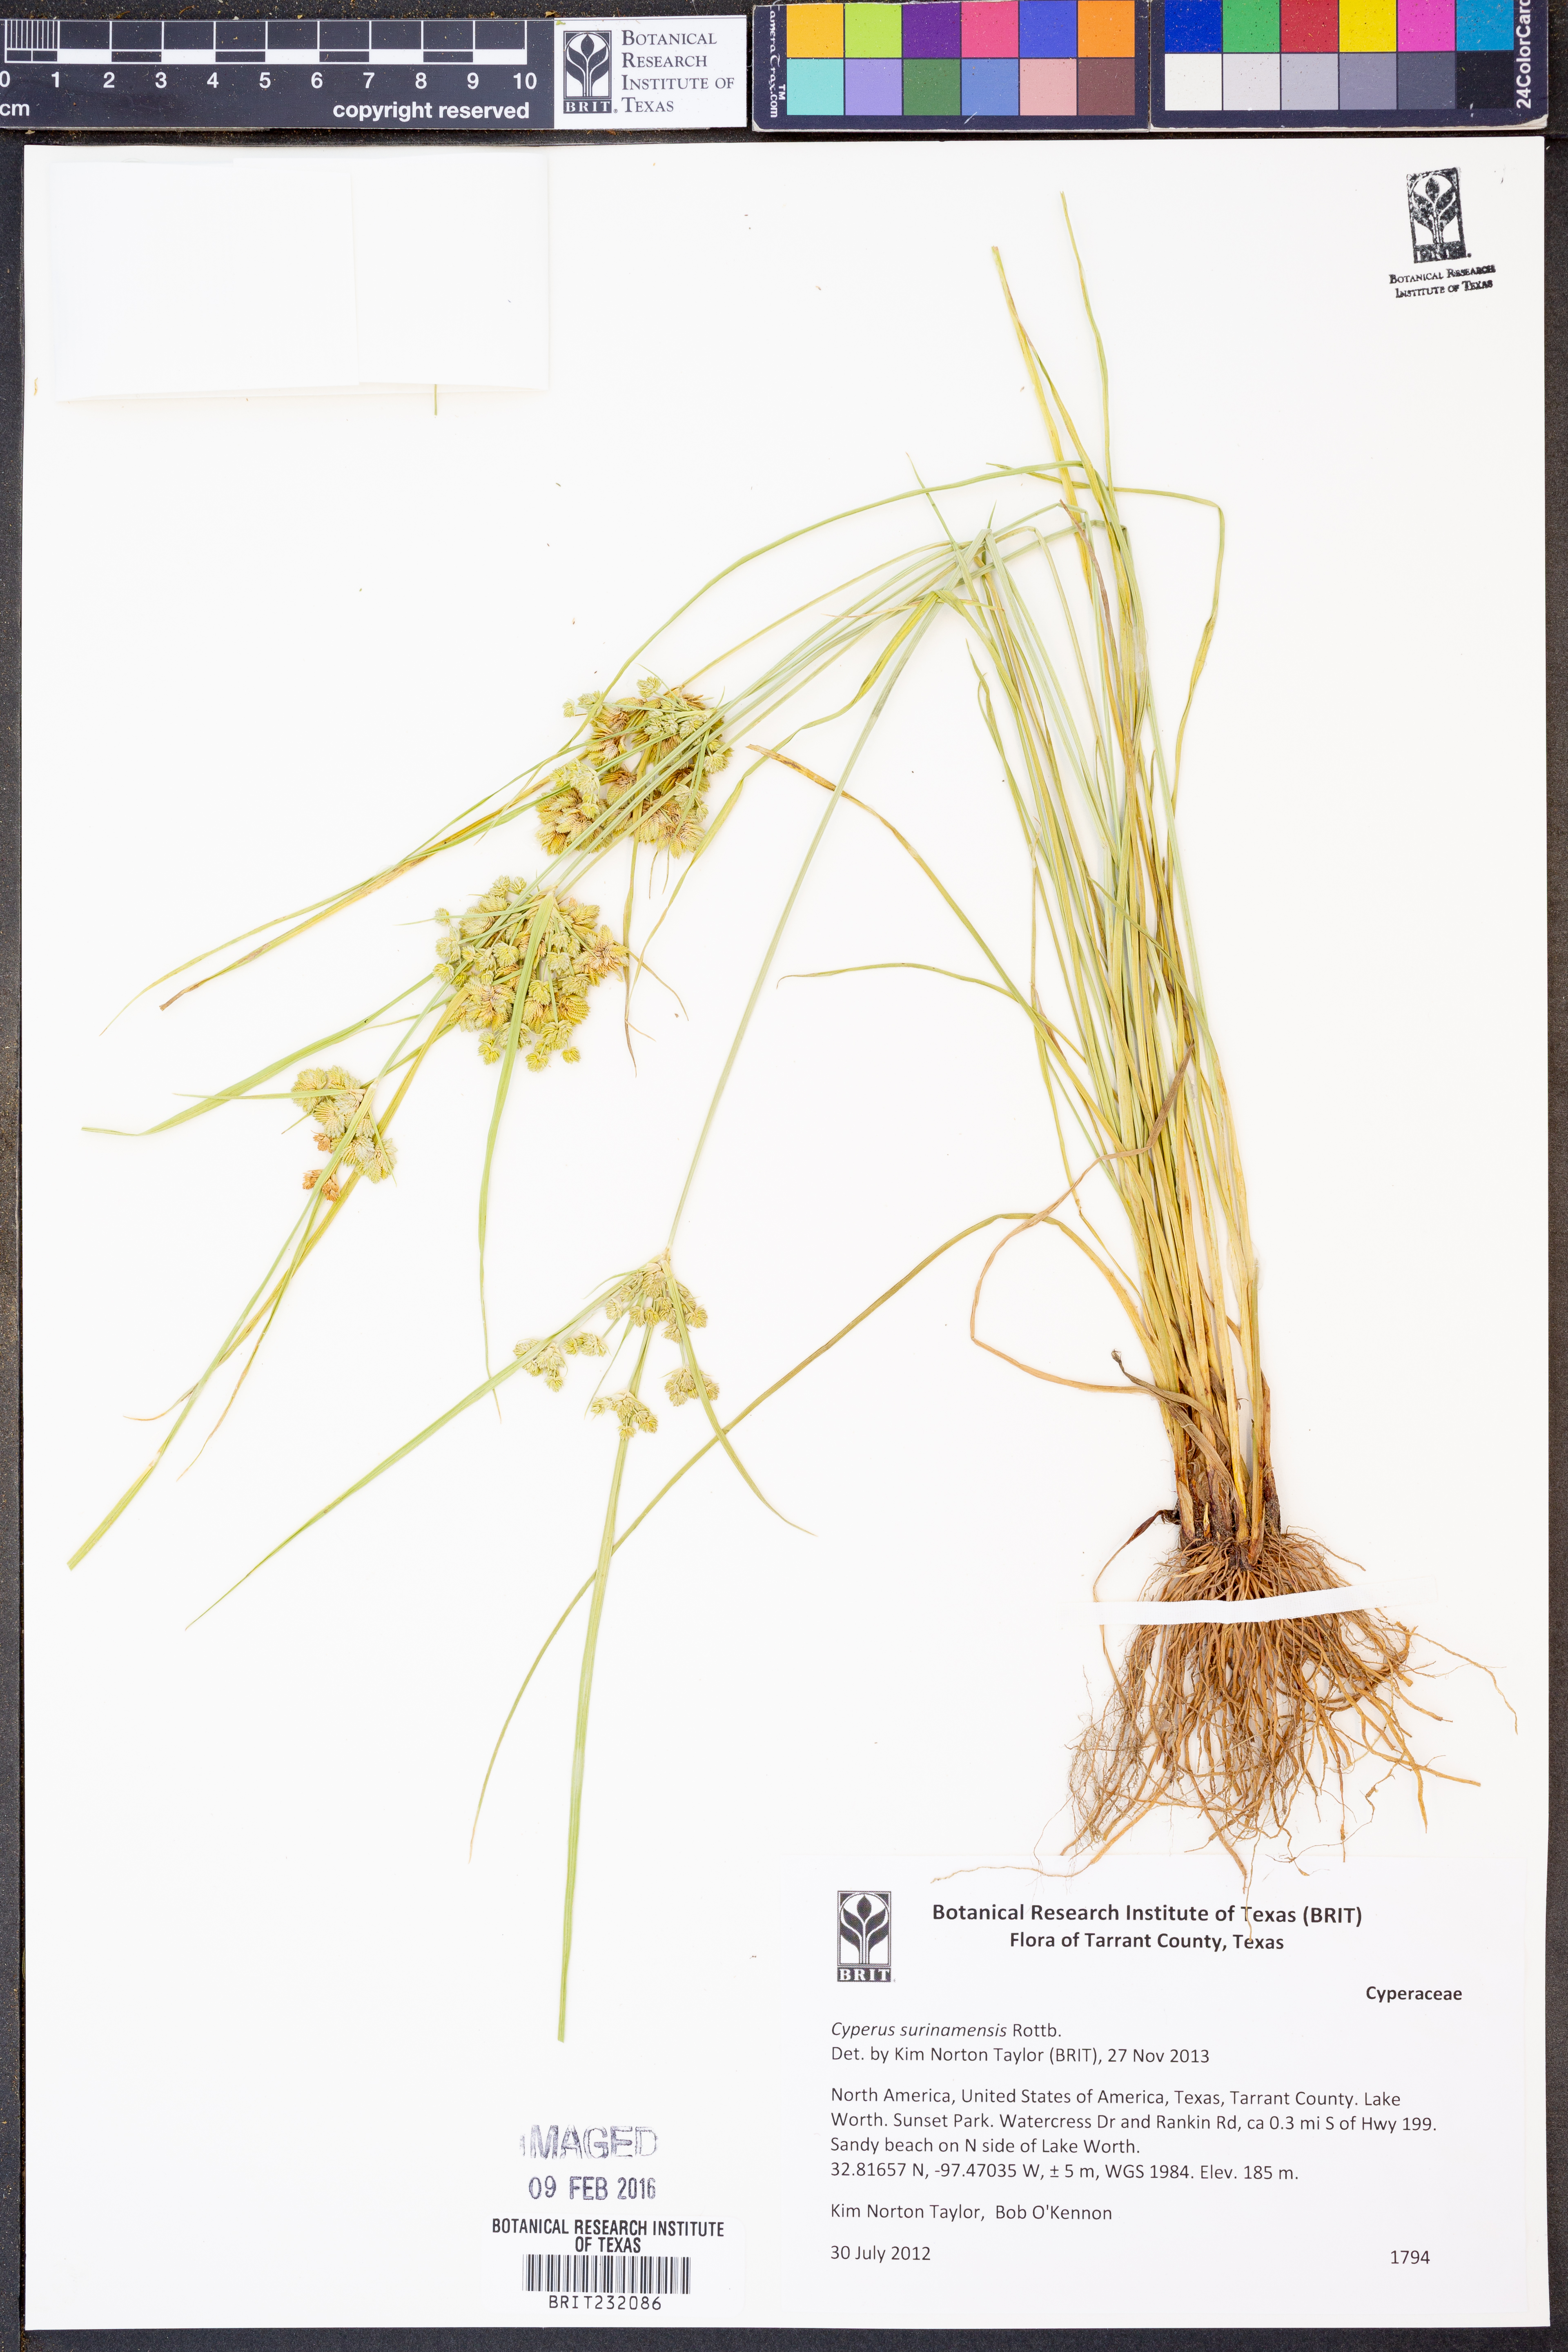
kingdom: Plantae
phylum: Tracheophyta
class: Liliopsida
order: Poales
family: Cyperaceae
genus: Cyperus
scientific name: Cyperus surinamensis
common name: Tropical flat sedge
